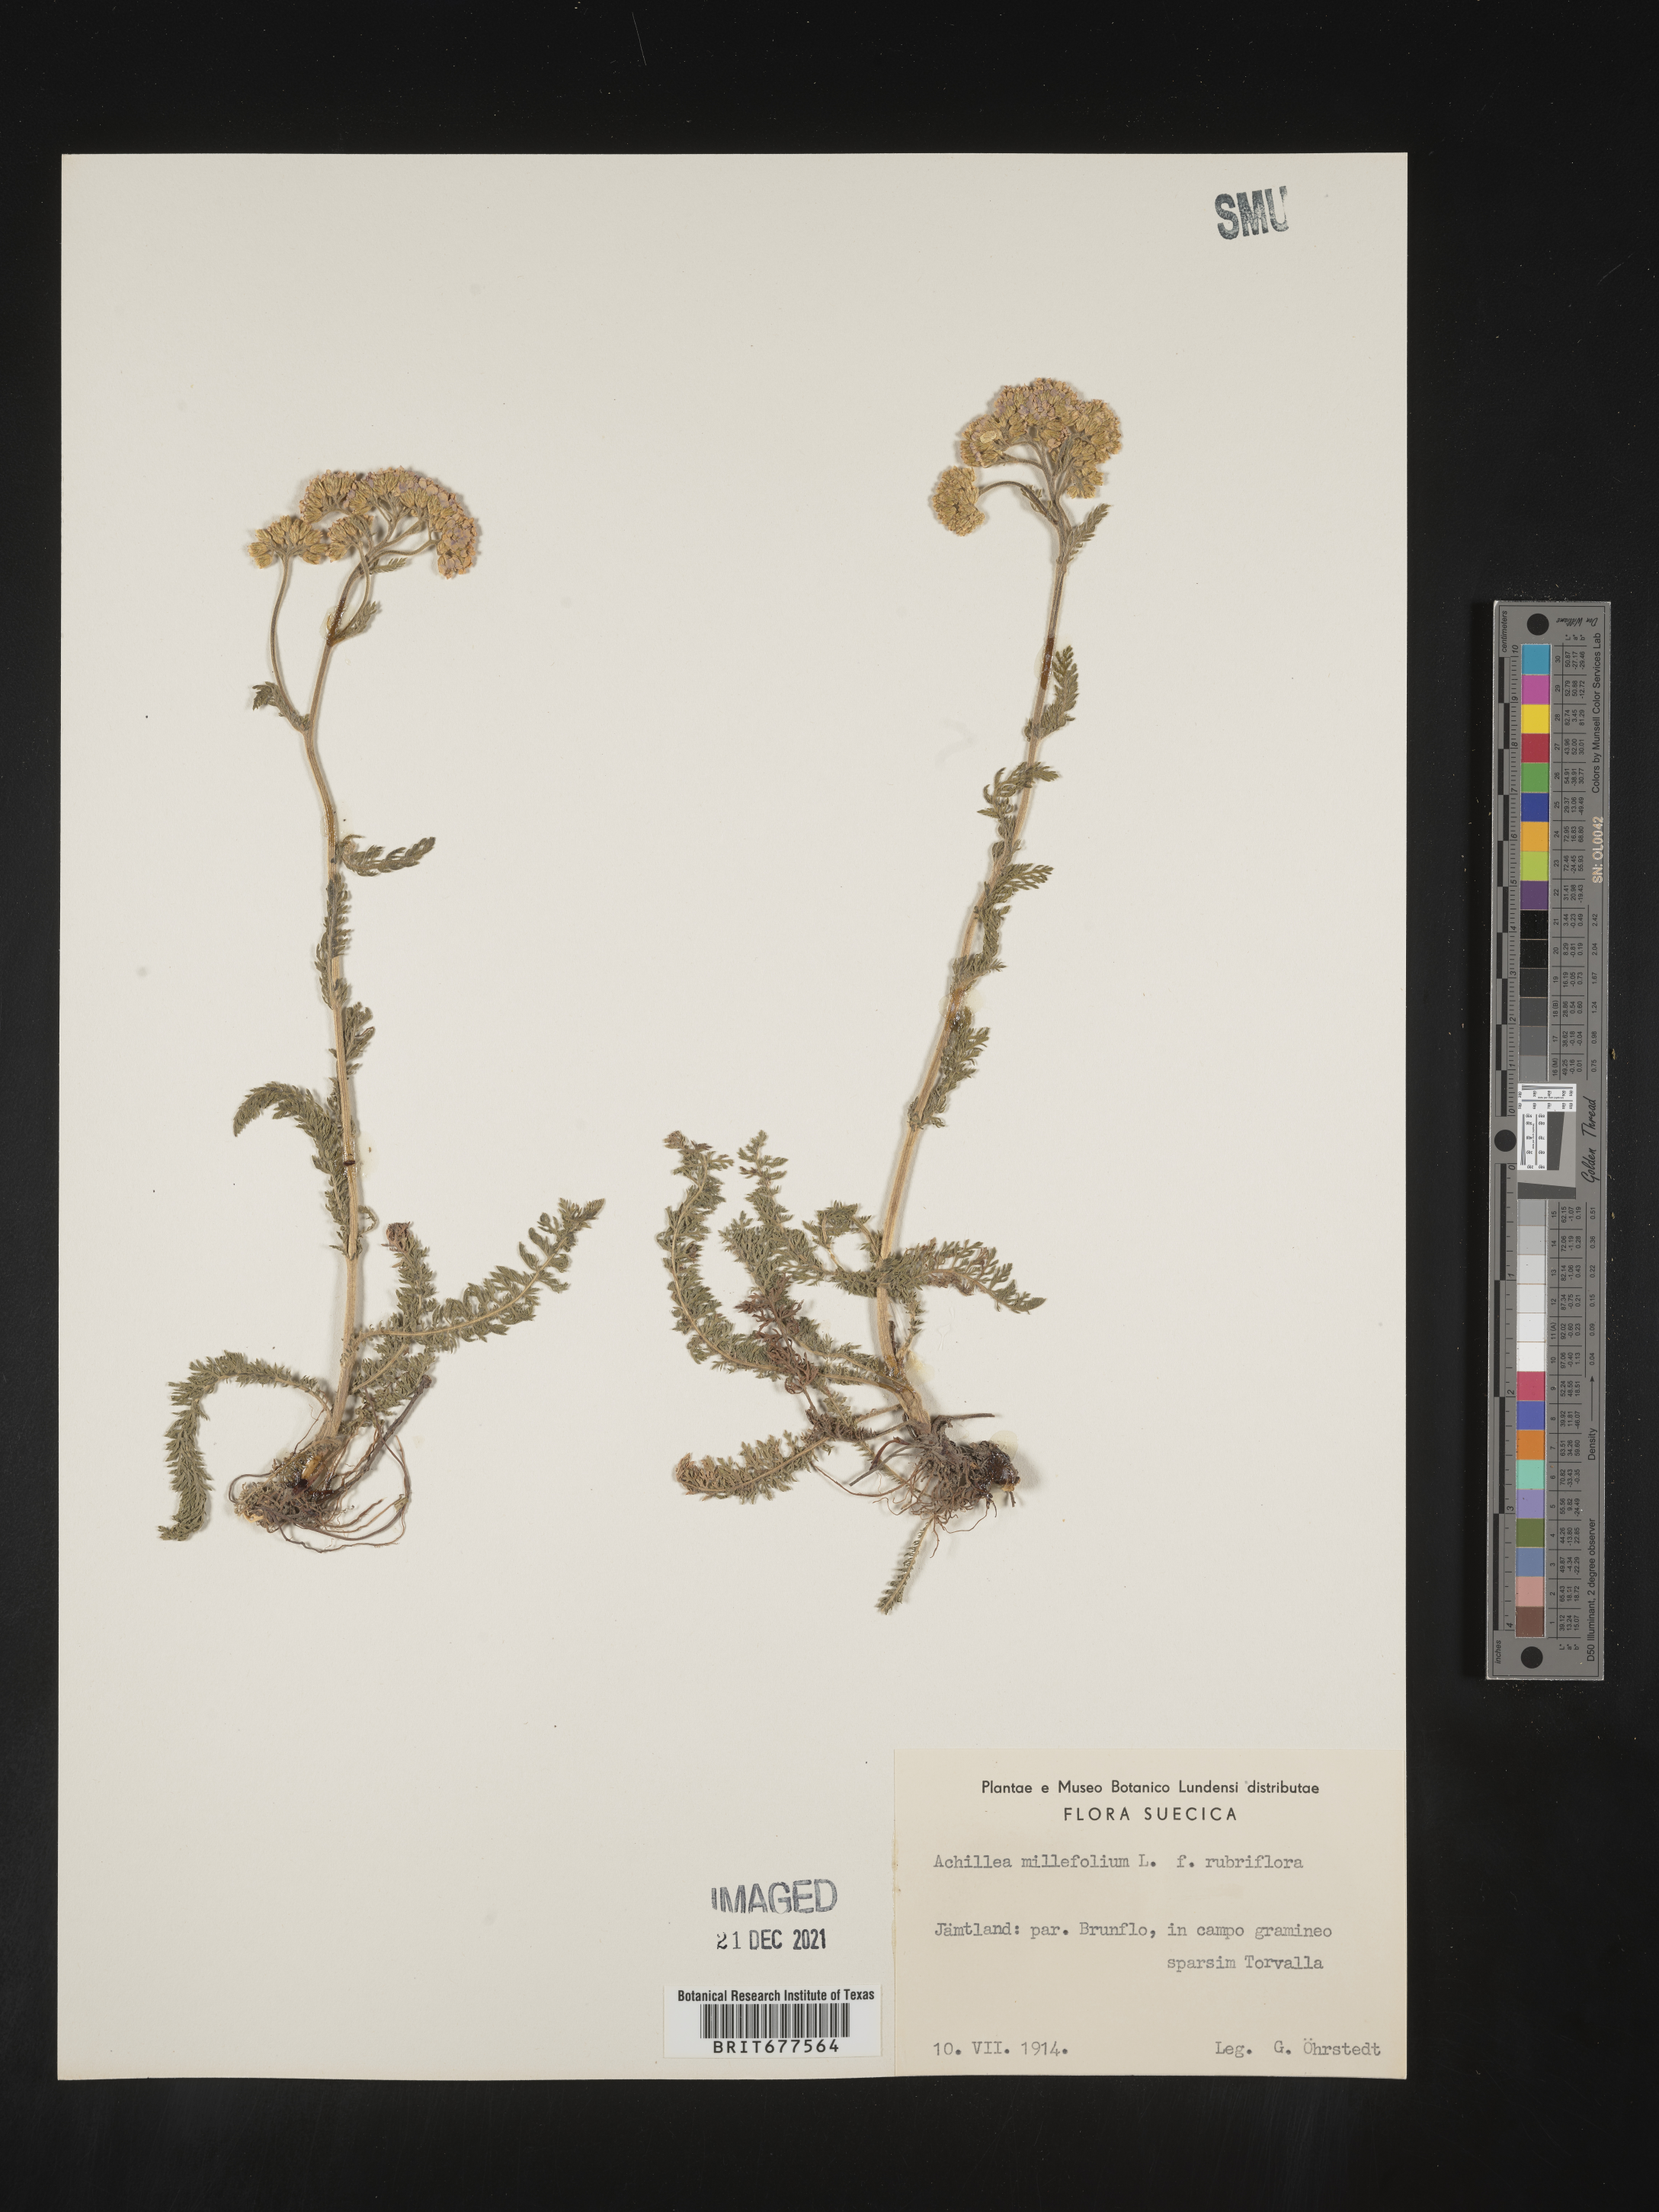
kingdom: Plantae
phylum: Tracheophyta
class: Magnoliopsida
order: Asterales
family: Asteraceae
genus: Achillea
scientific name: Achillea millefolium
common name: Yarrow
